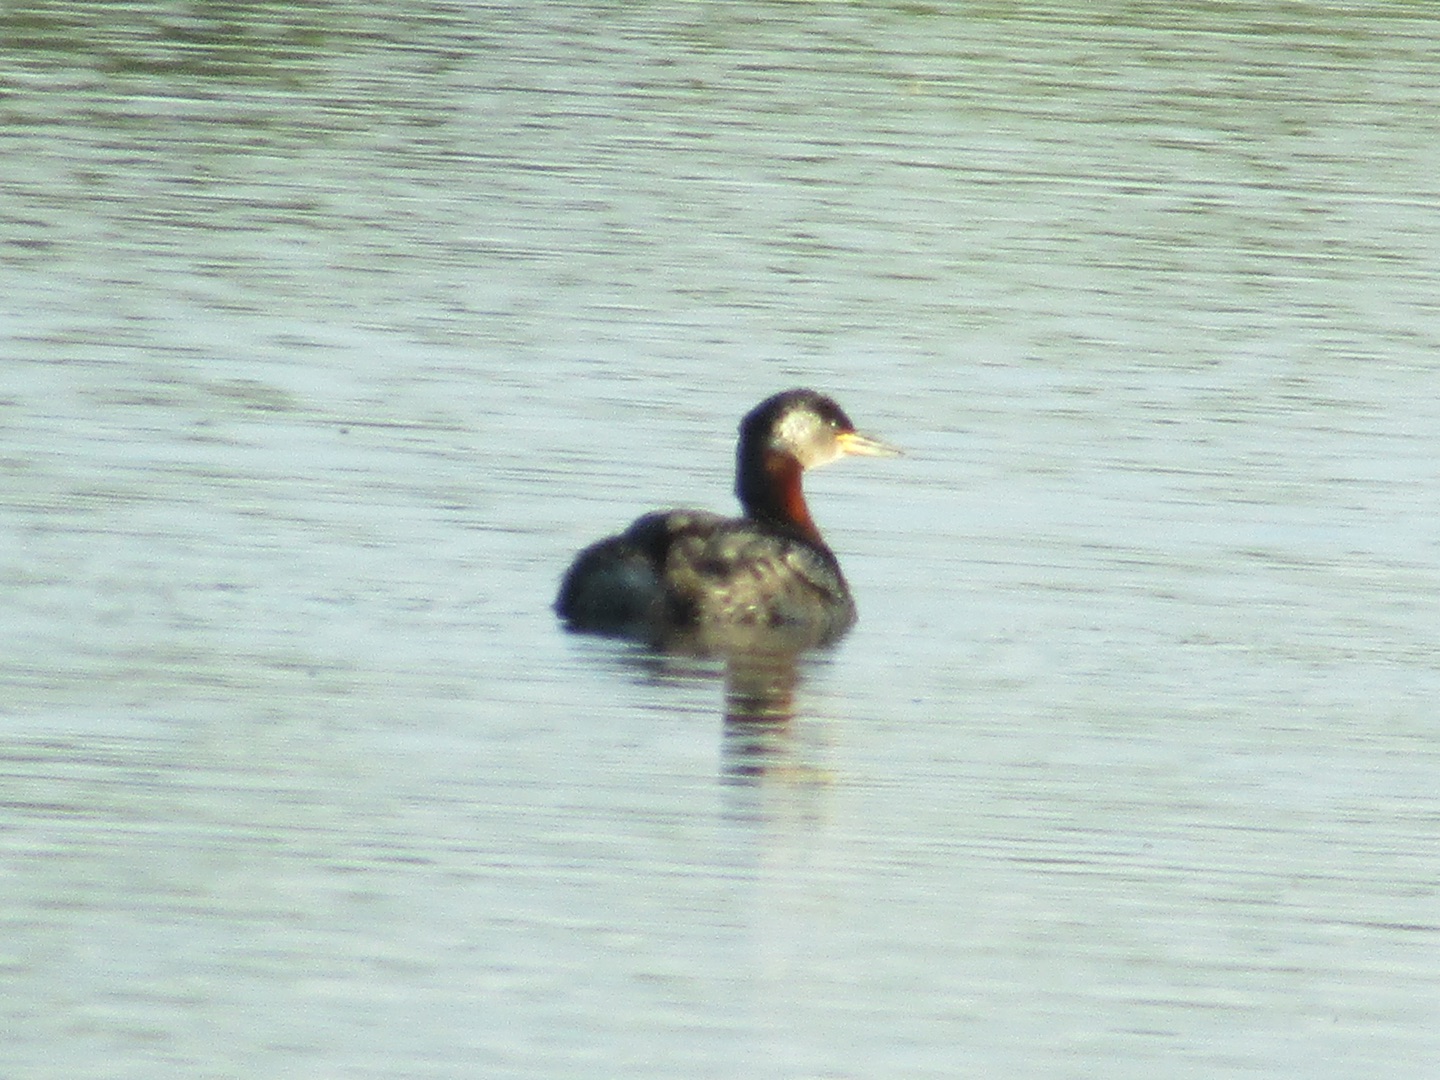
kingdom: Animalia
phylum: Chordata
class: Aves
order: Podicipediformes
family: Podicipedidae
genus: Podiceps
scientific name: Podiceps grisegena
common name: Gråstrubet lappedykker
